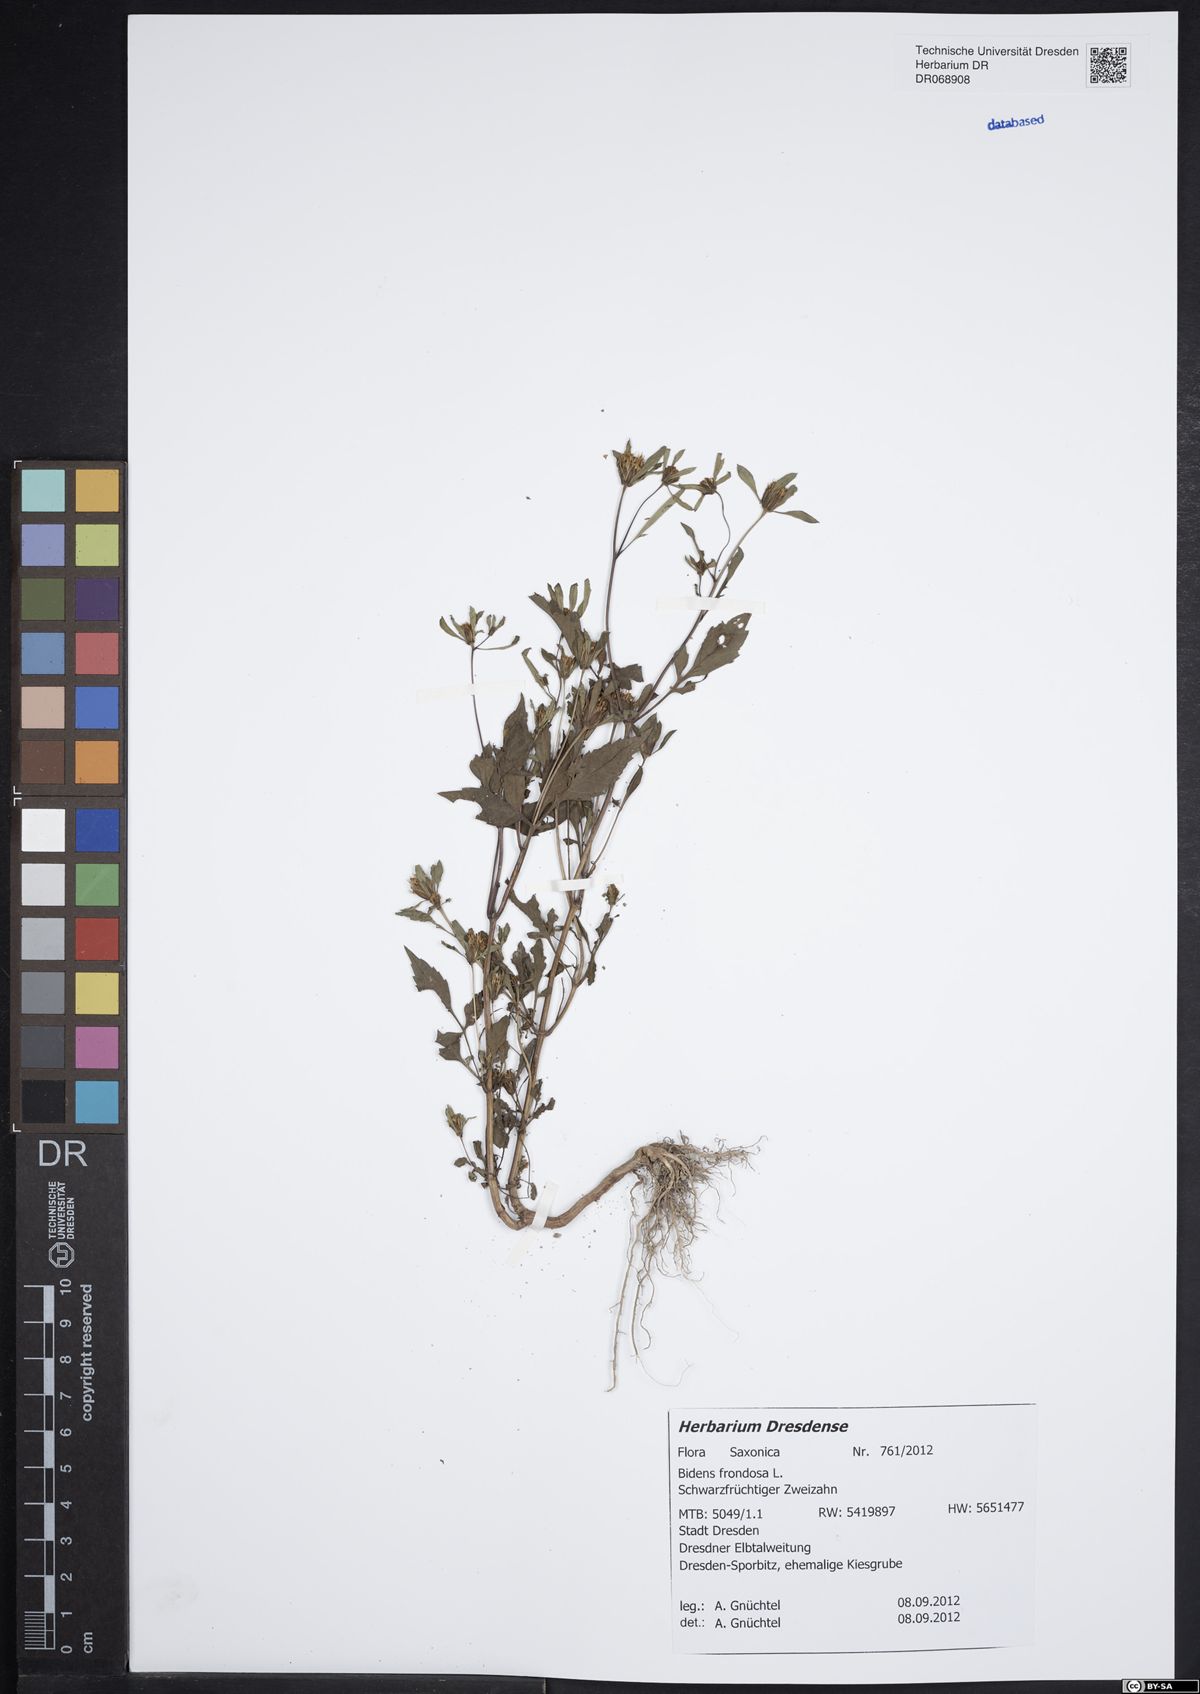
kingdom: Plantae
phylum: Tracheophyta
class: Magnoliopsida
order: Asterales
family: Asteraceae
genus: Bidens
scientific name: Bidens frondosa
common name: Beggarticks
